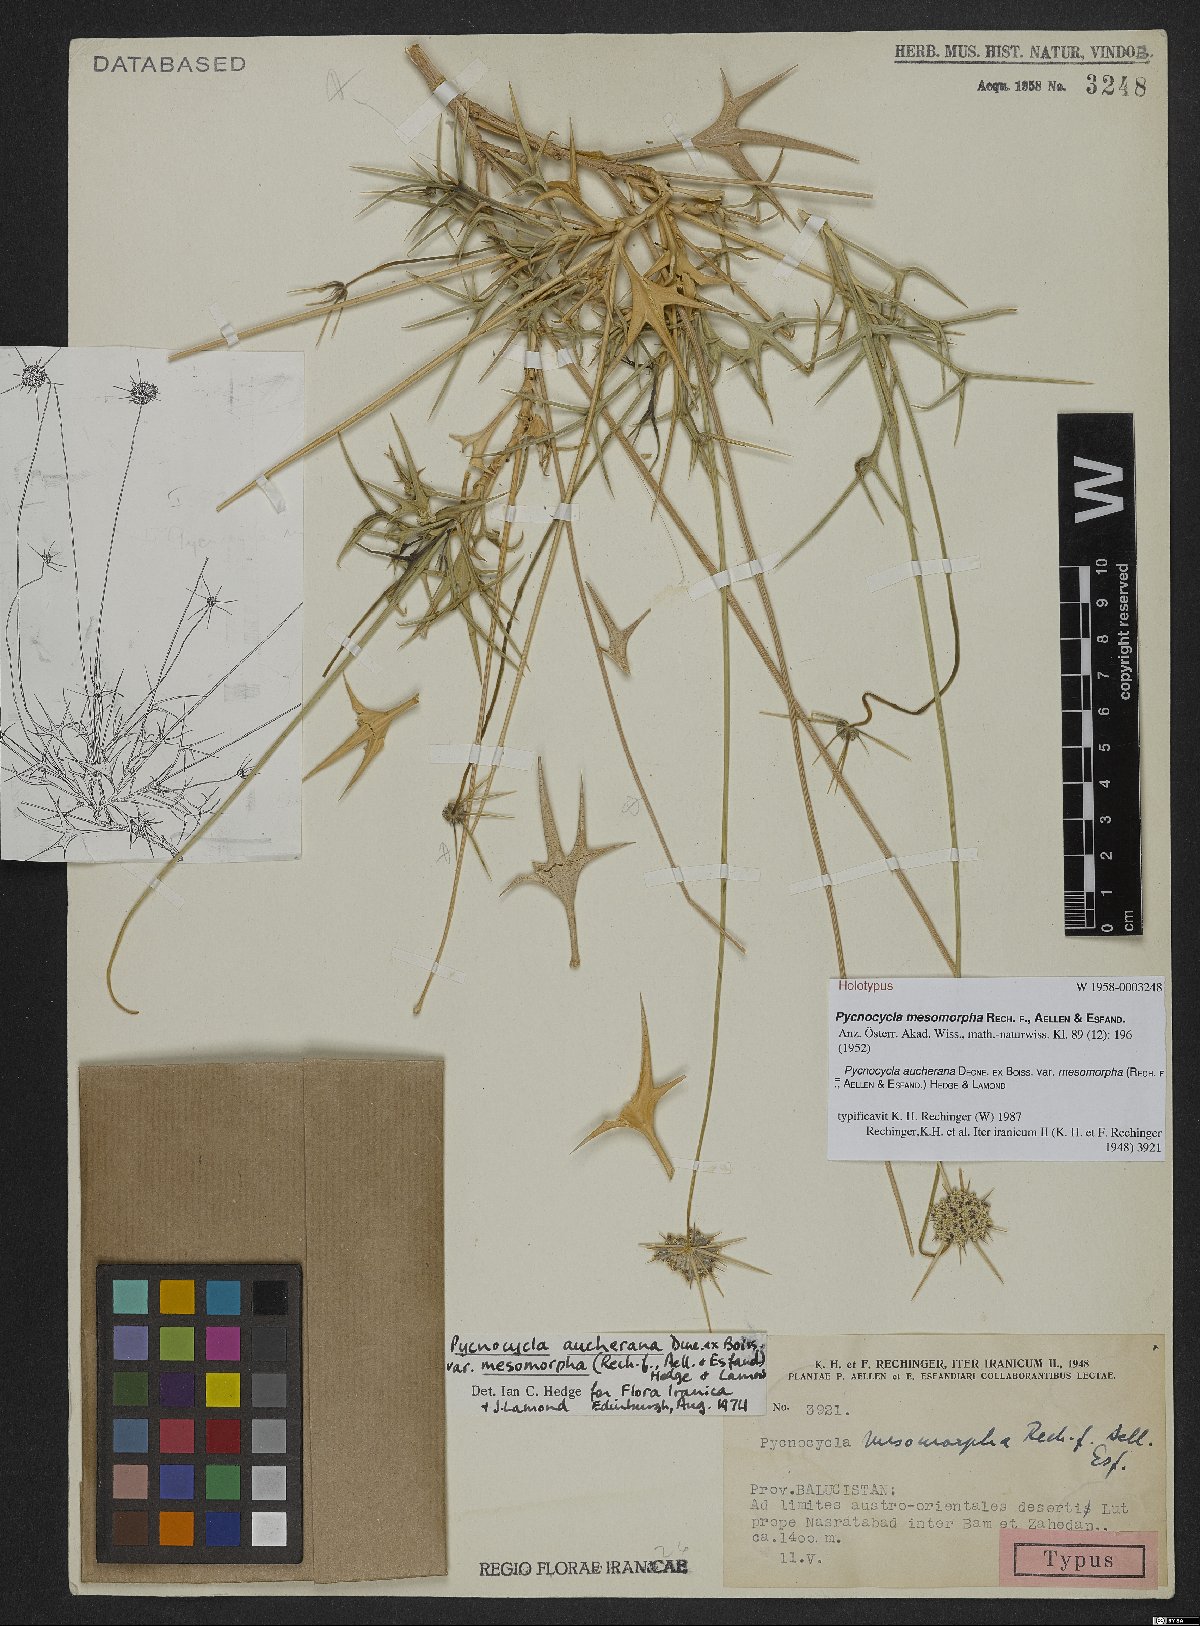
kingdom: Plantae
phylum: Tracheophyta
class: Magnoliopsida
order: Apiales
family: Apiaceae
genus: Pycnocycla
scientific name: Pycnocycla aucheriana
